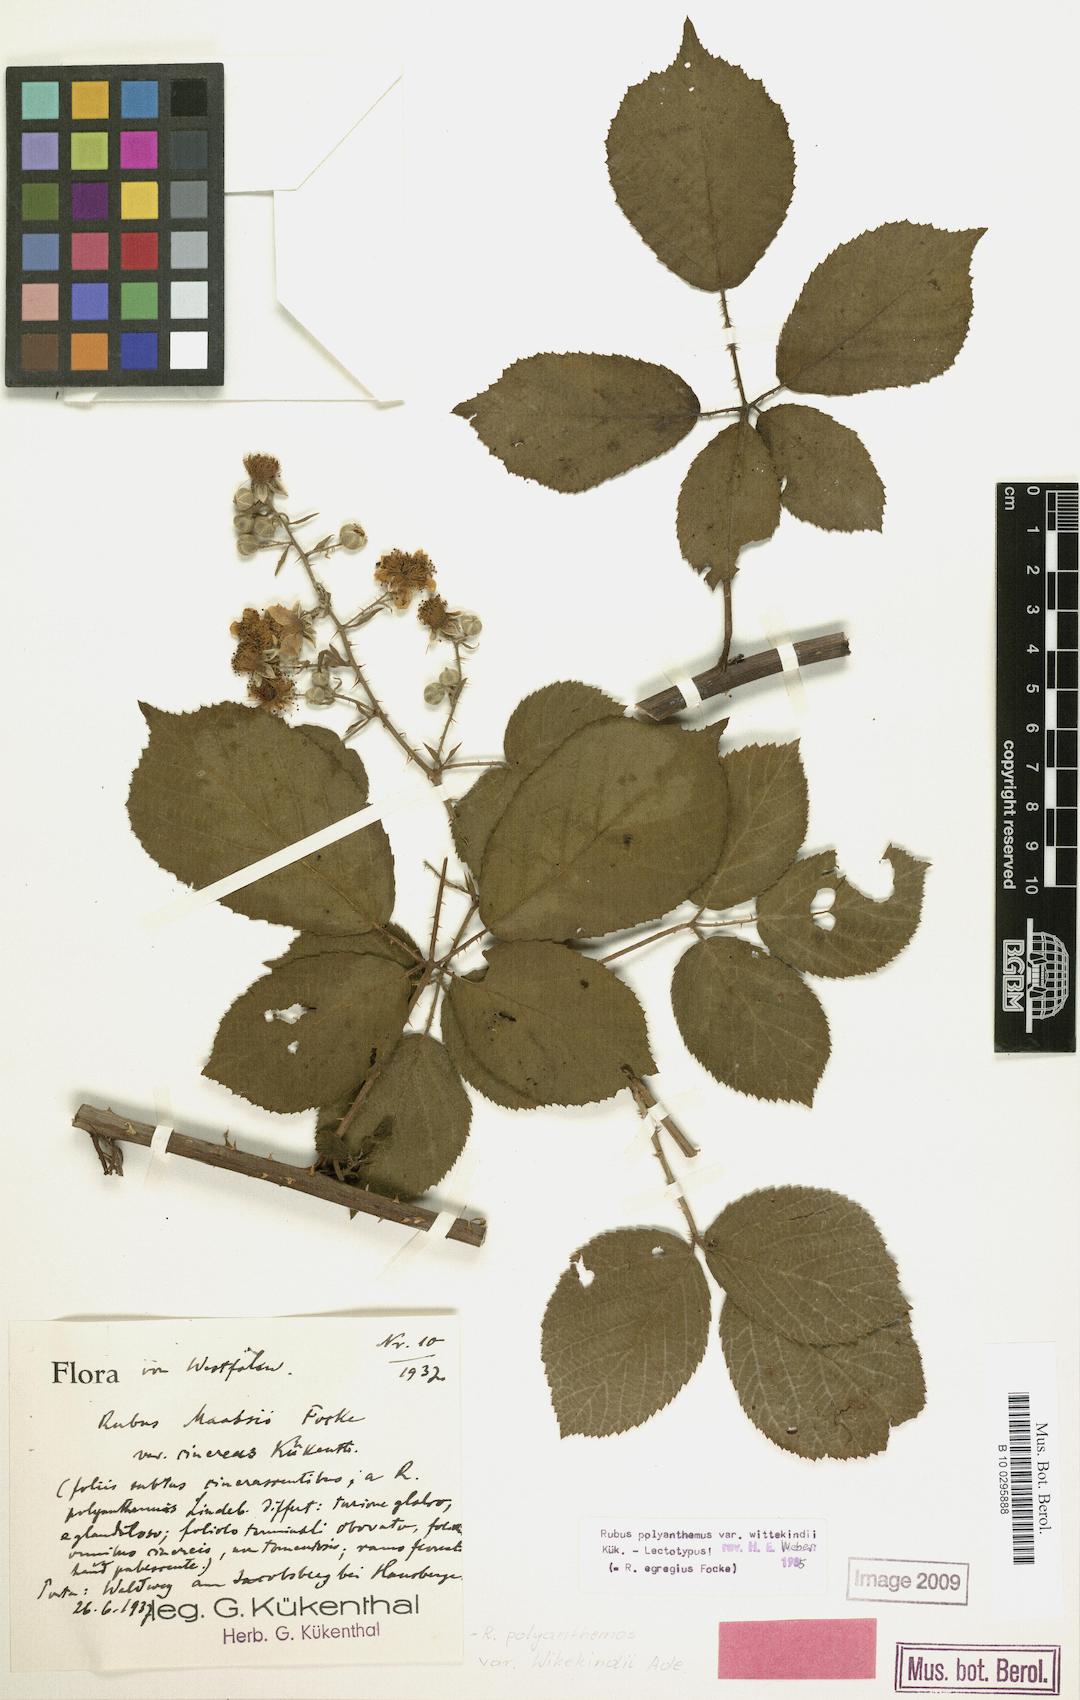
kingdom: Plantae
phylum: Tracheophyta
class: Magnoliopsida
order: Rosales
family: Rosaceae
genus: Rubus
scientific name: Rubus egregius
